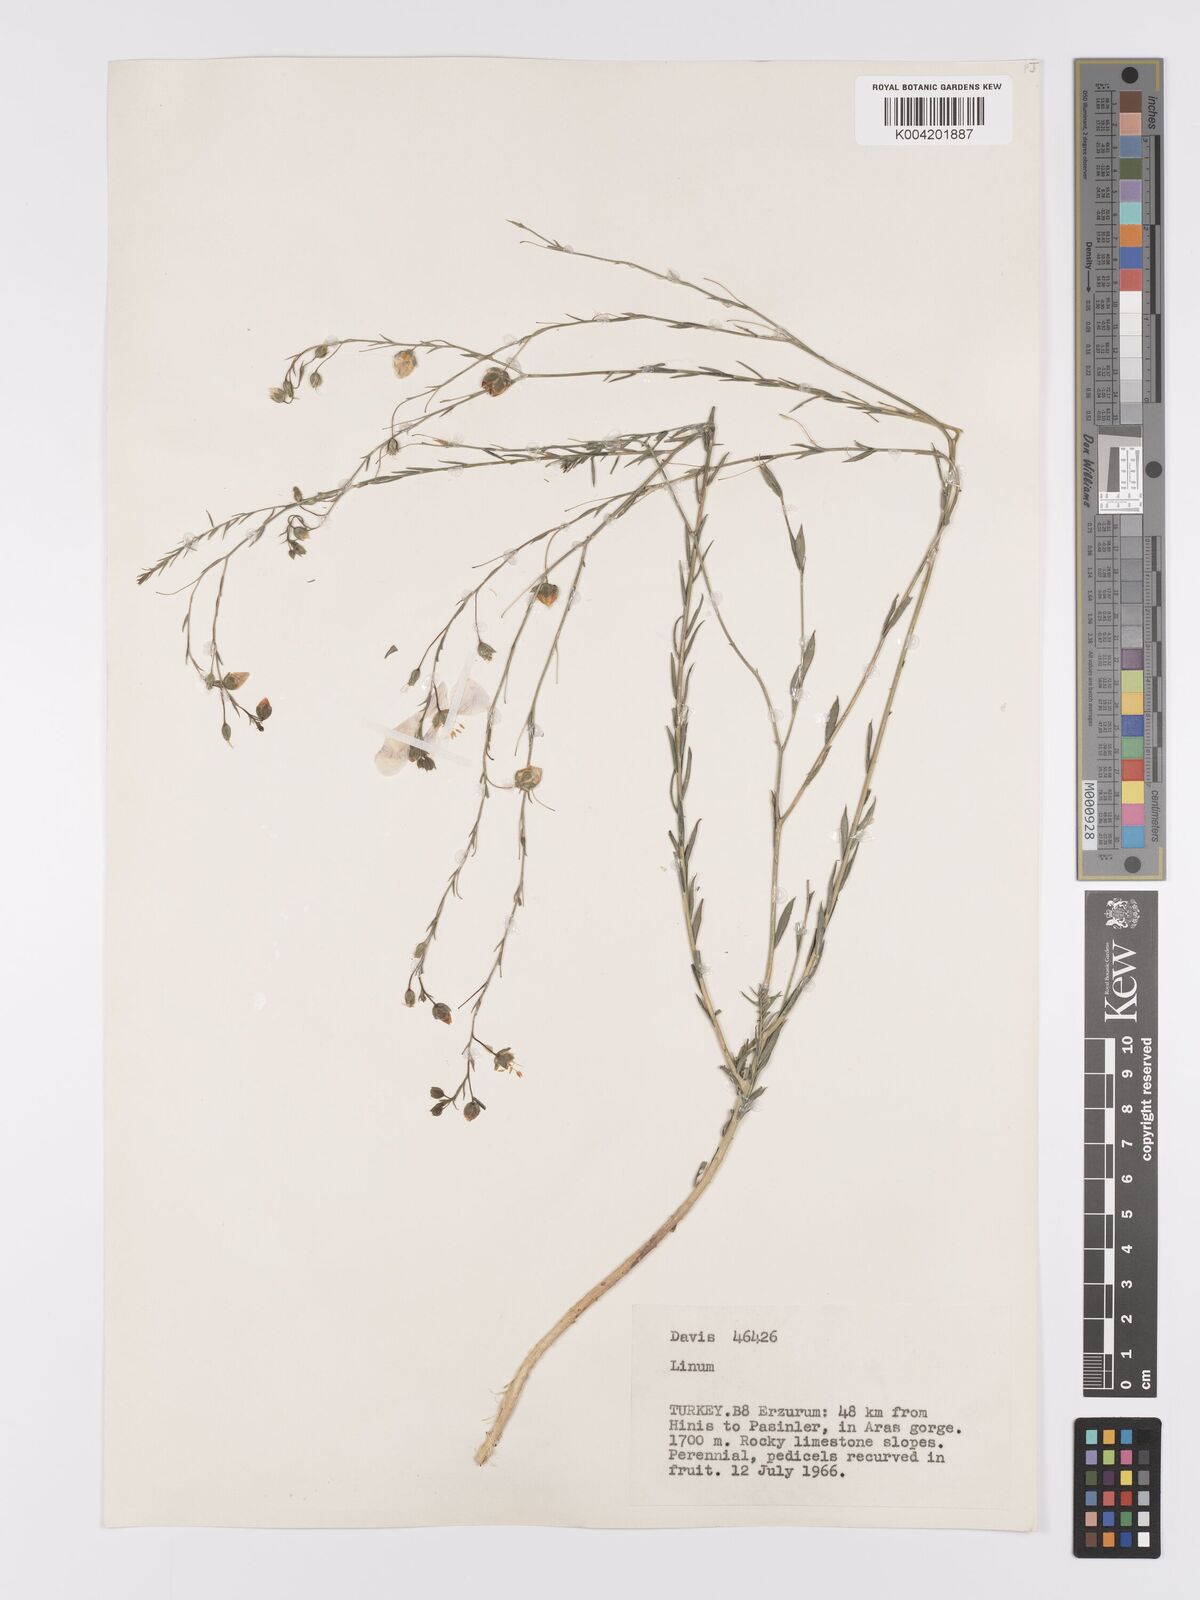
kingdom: Plantae
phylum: Tracheophyta
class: Magnoliopsida
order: Malpighiales
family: Linaceae
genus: Linum
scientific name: Linum
